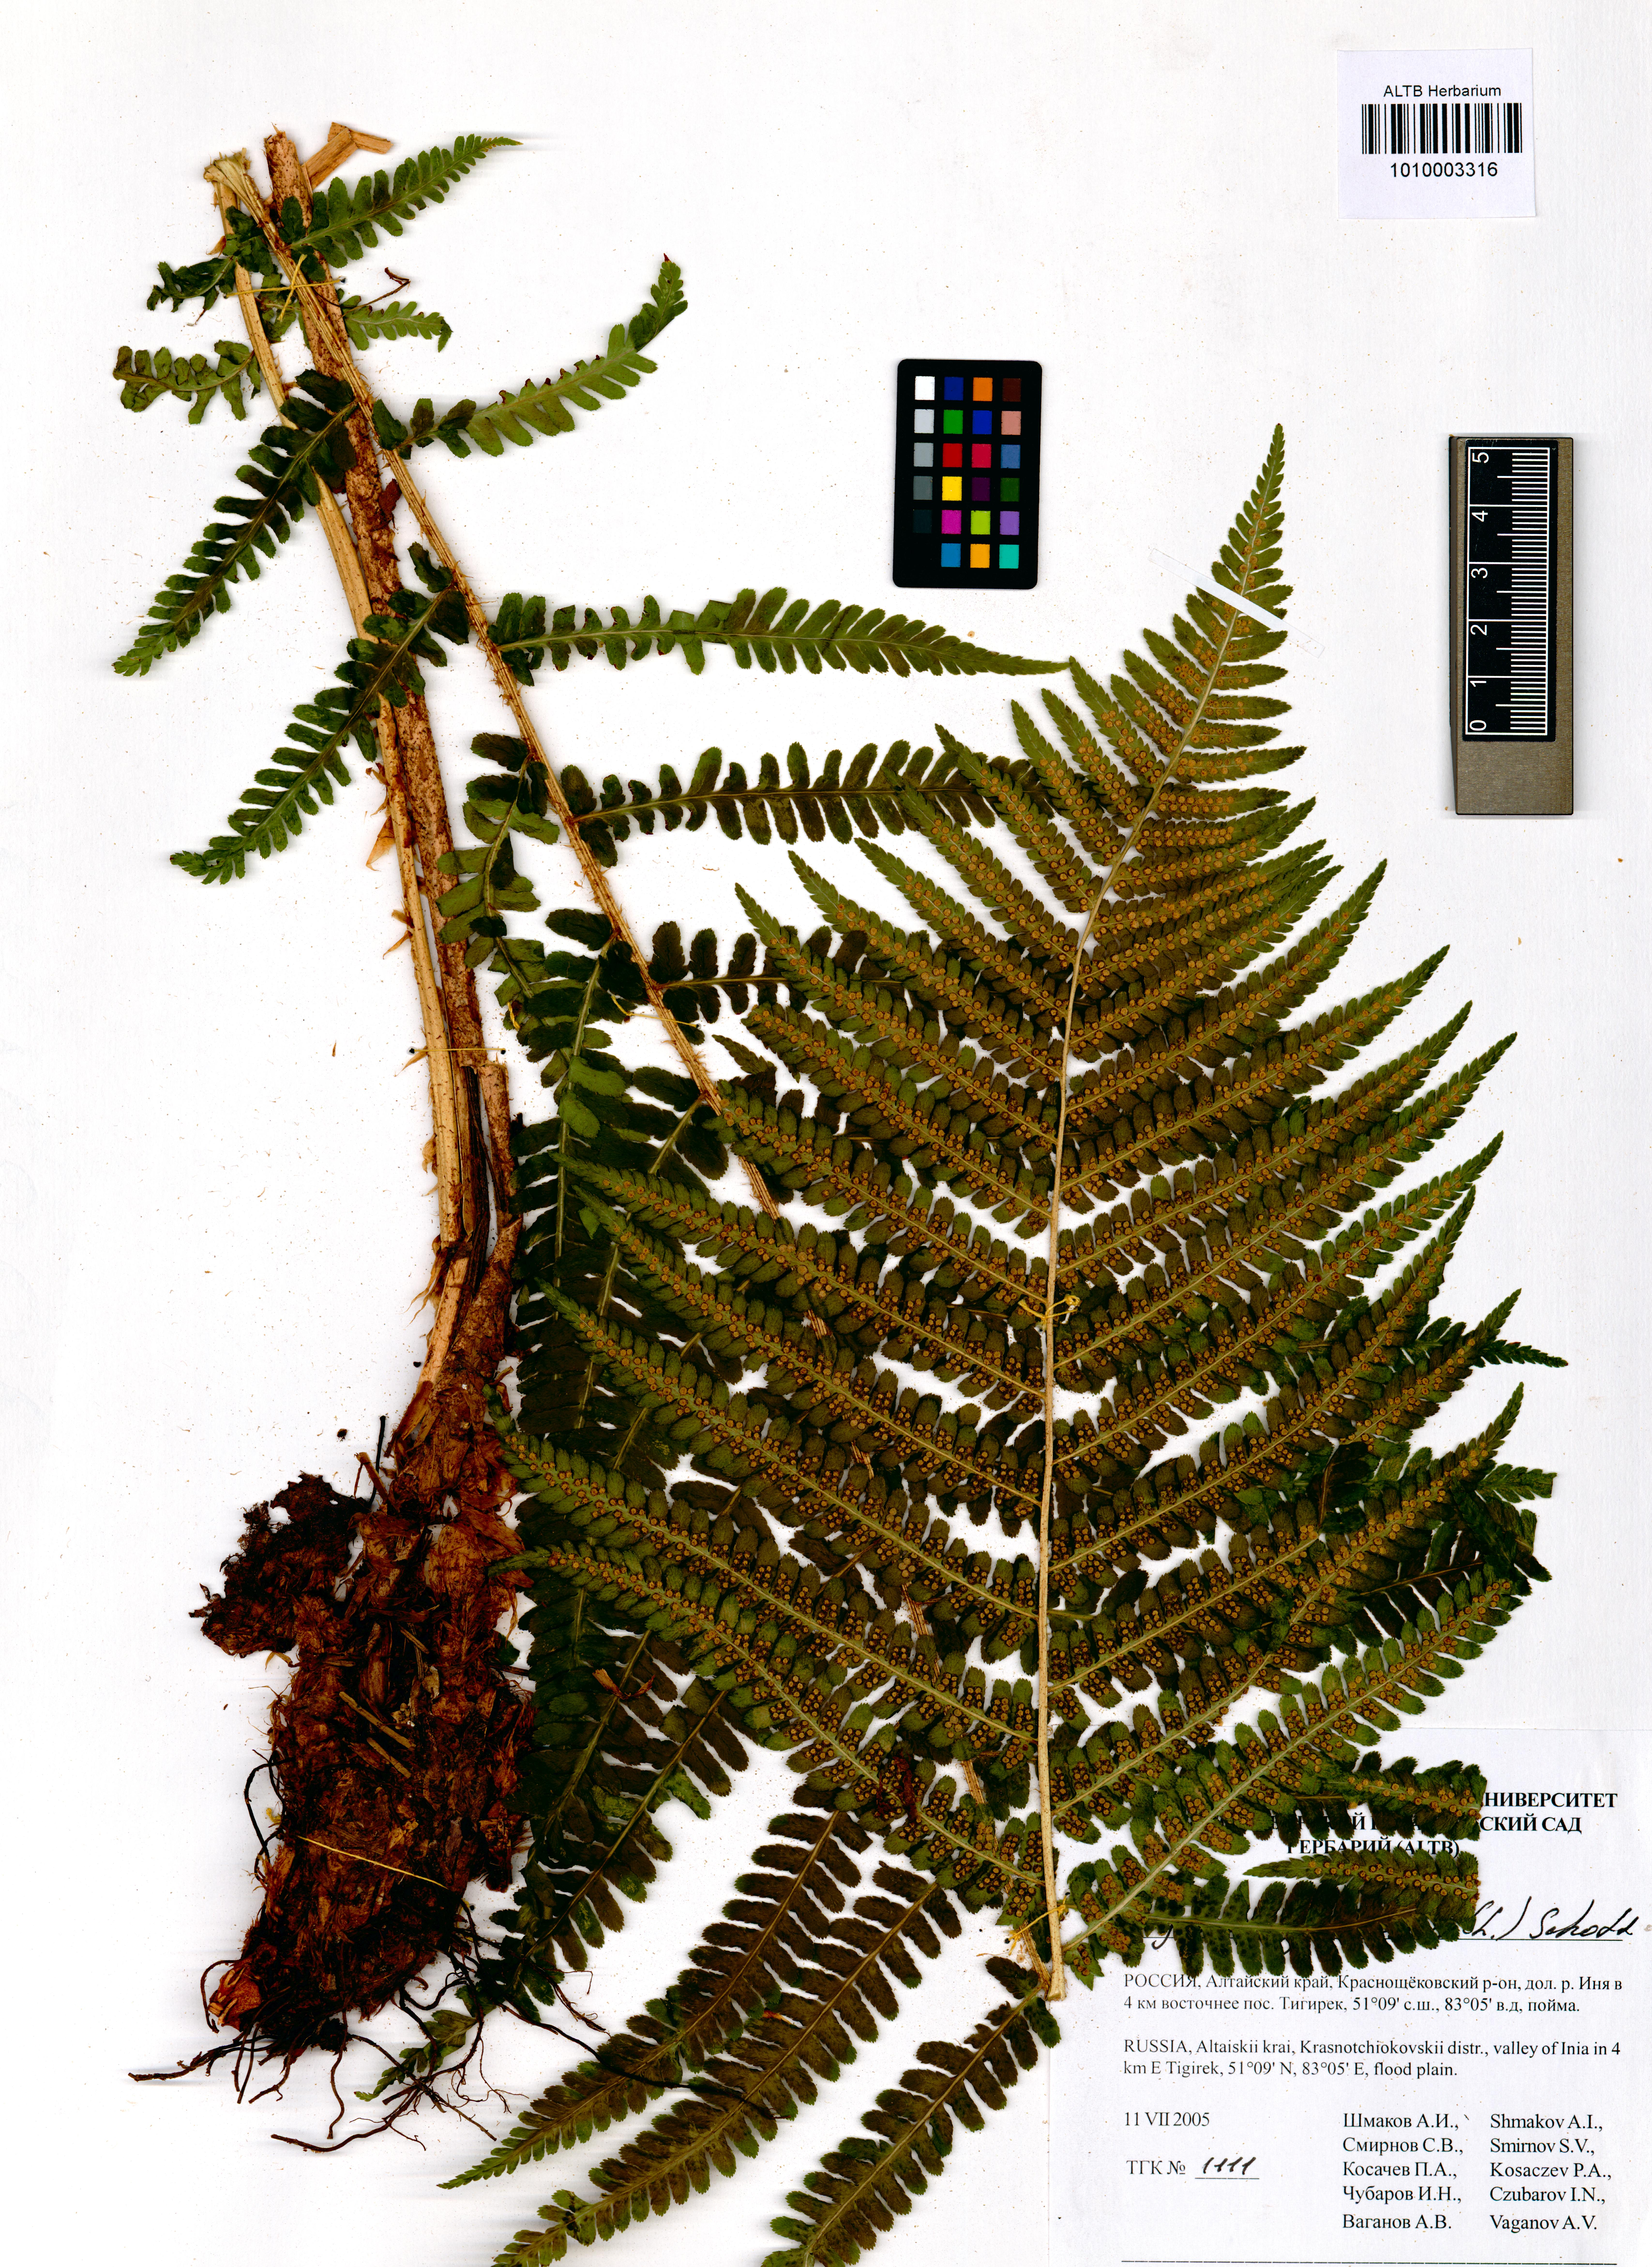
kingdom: Plantae
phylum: Tracheophyta
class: Polypodiopsida
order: Polypodiales
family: Dryopteridaceae
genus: Dryopteris
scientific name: Dryopteris filix-mas
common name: Male fern
